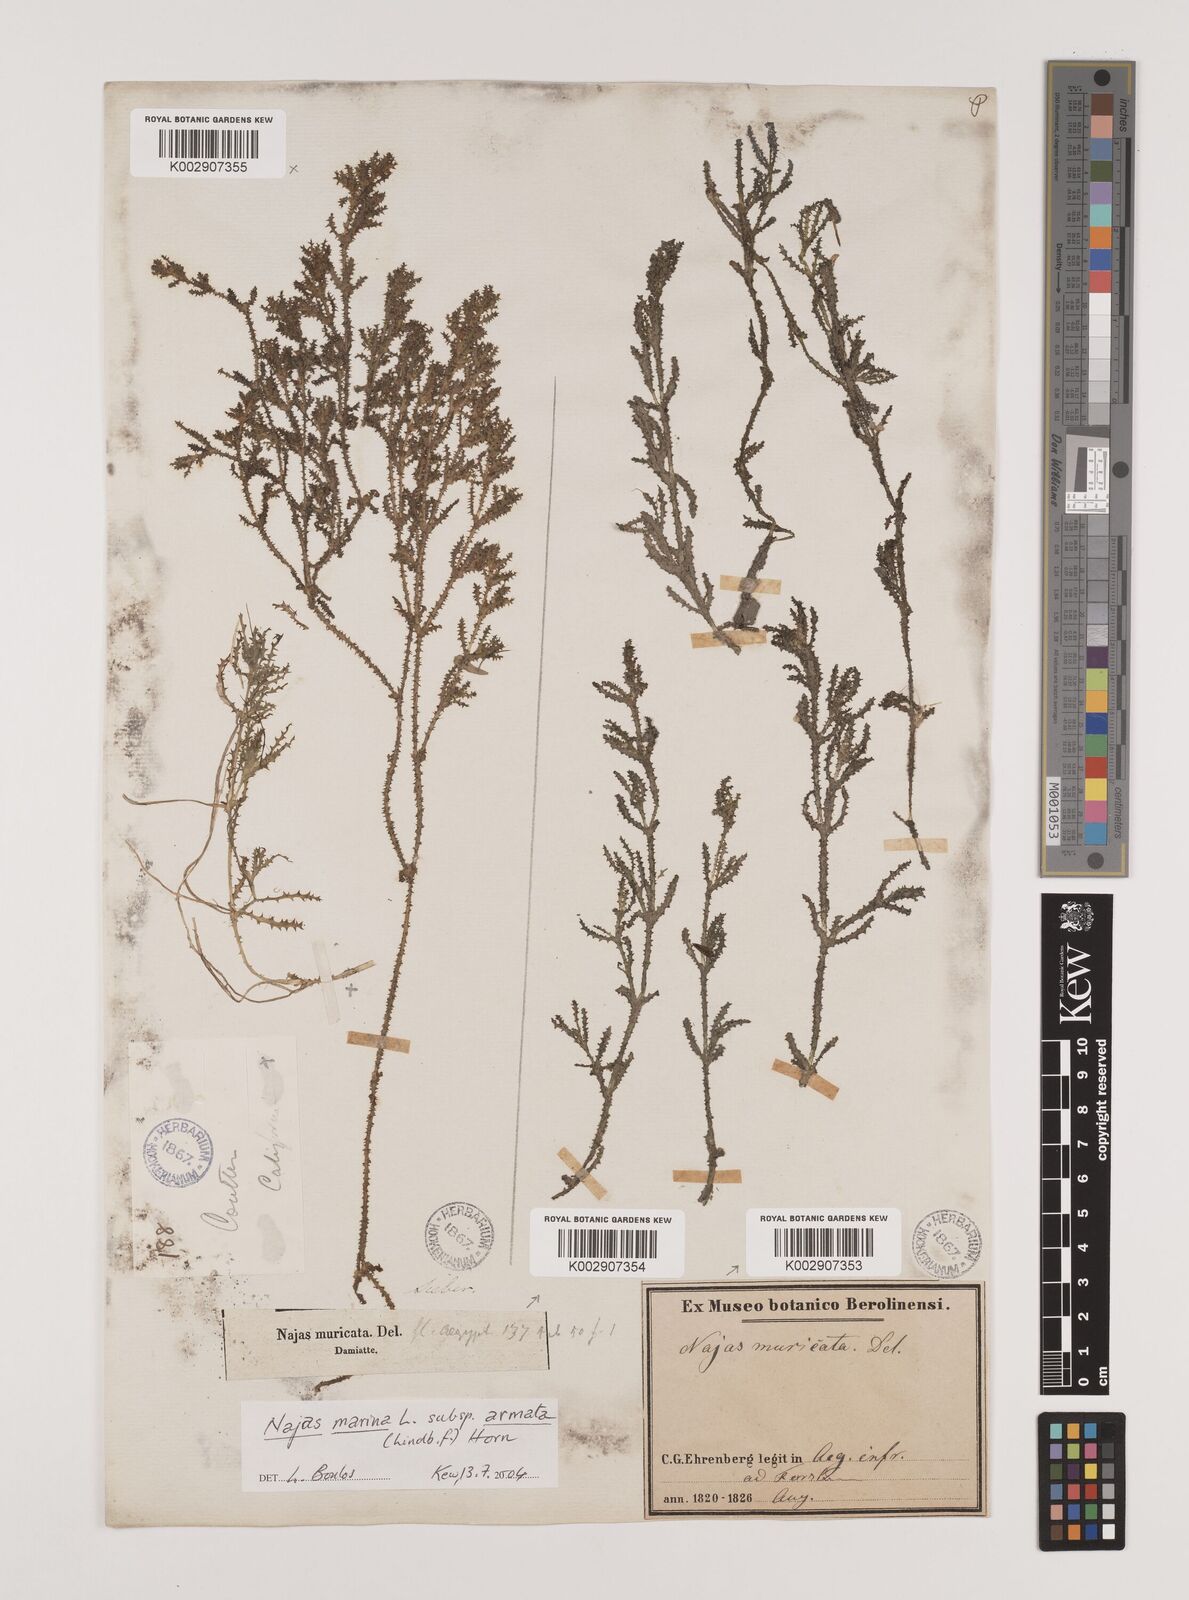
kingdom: Plantae
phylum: Tracheophyta
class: Liliopsida
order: Alismatales
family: Hydrocharitaceae
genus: Najas
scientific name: Najas marina
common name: Holly-leaved naiad
